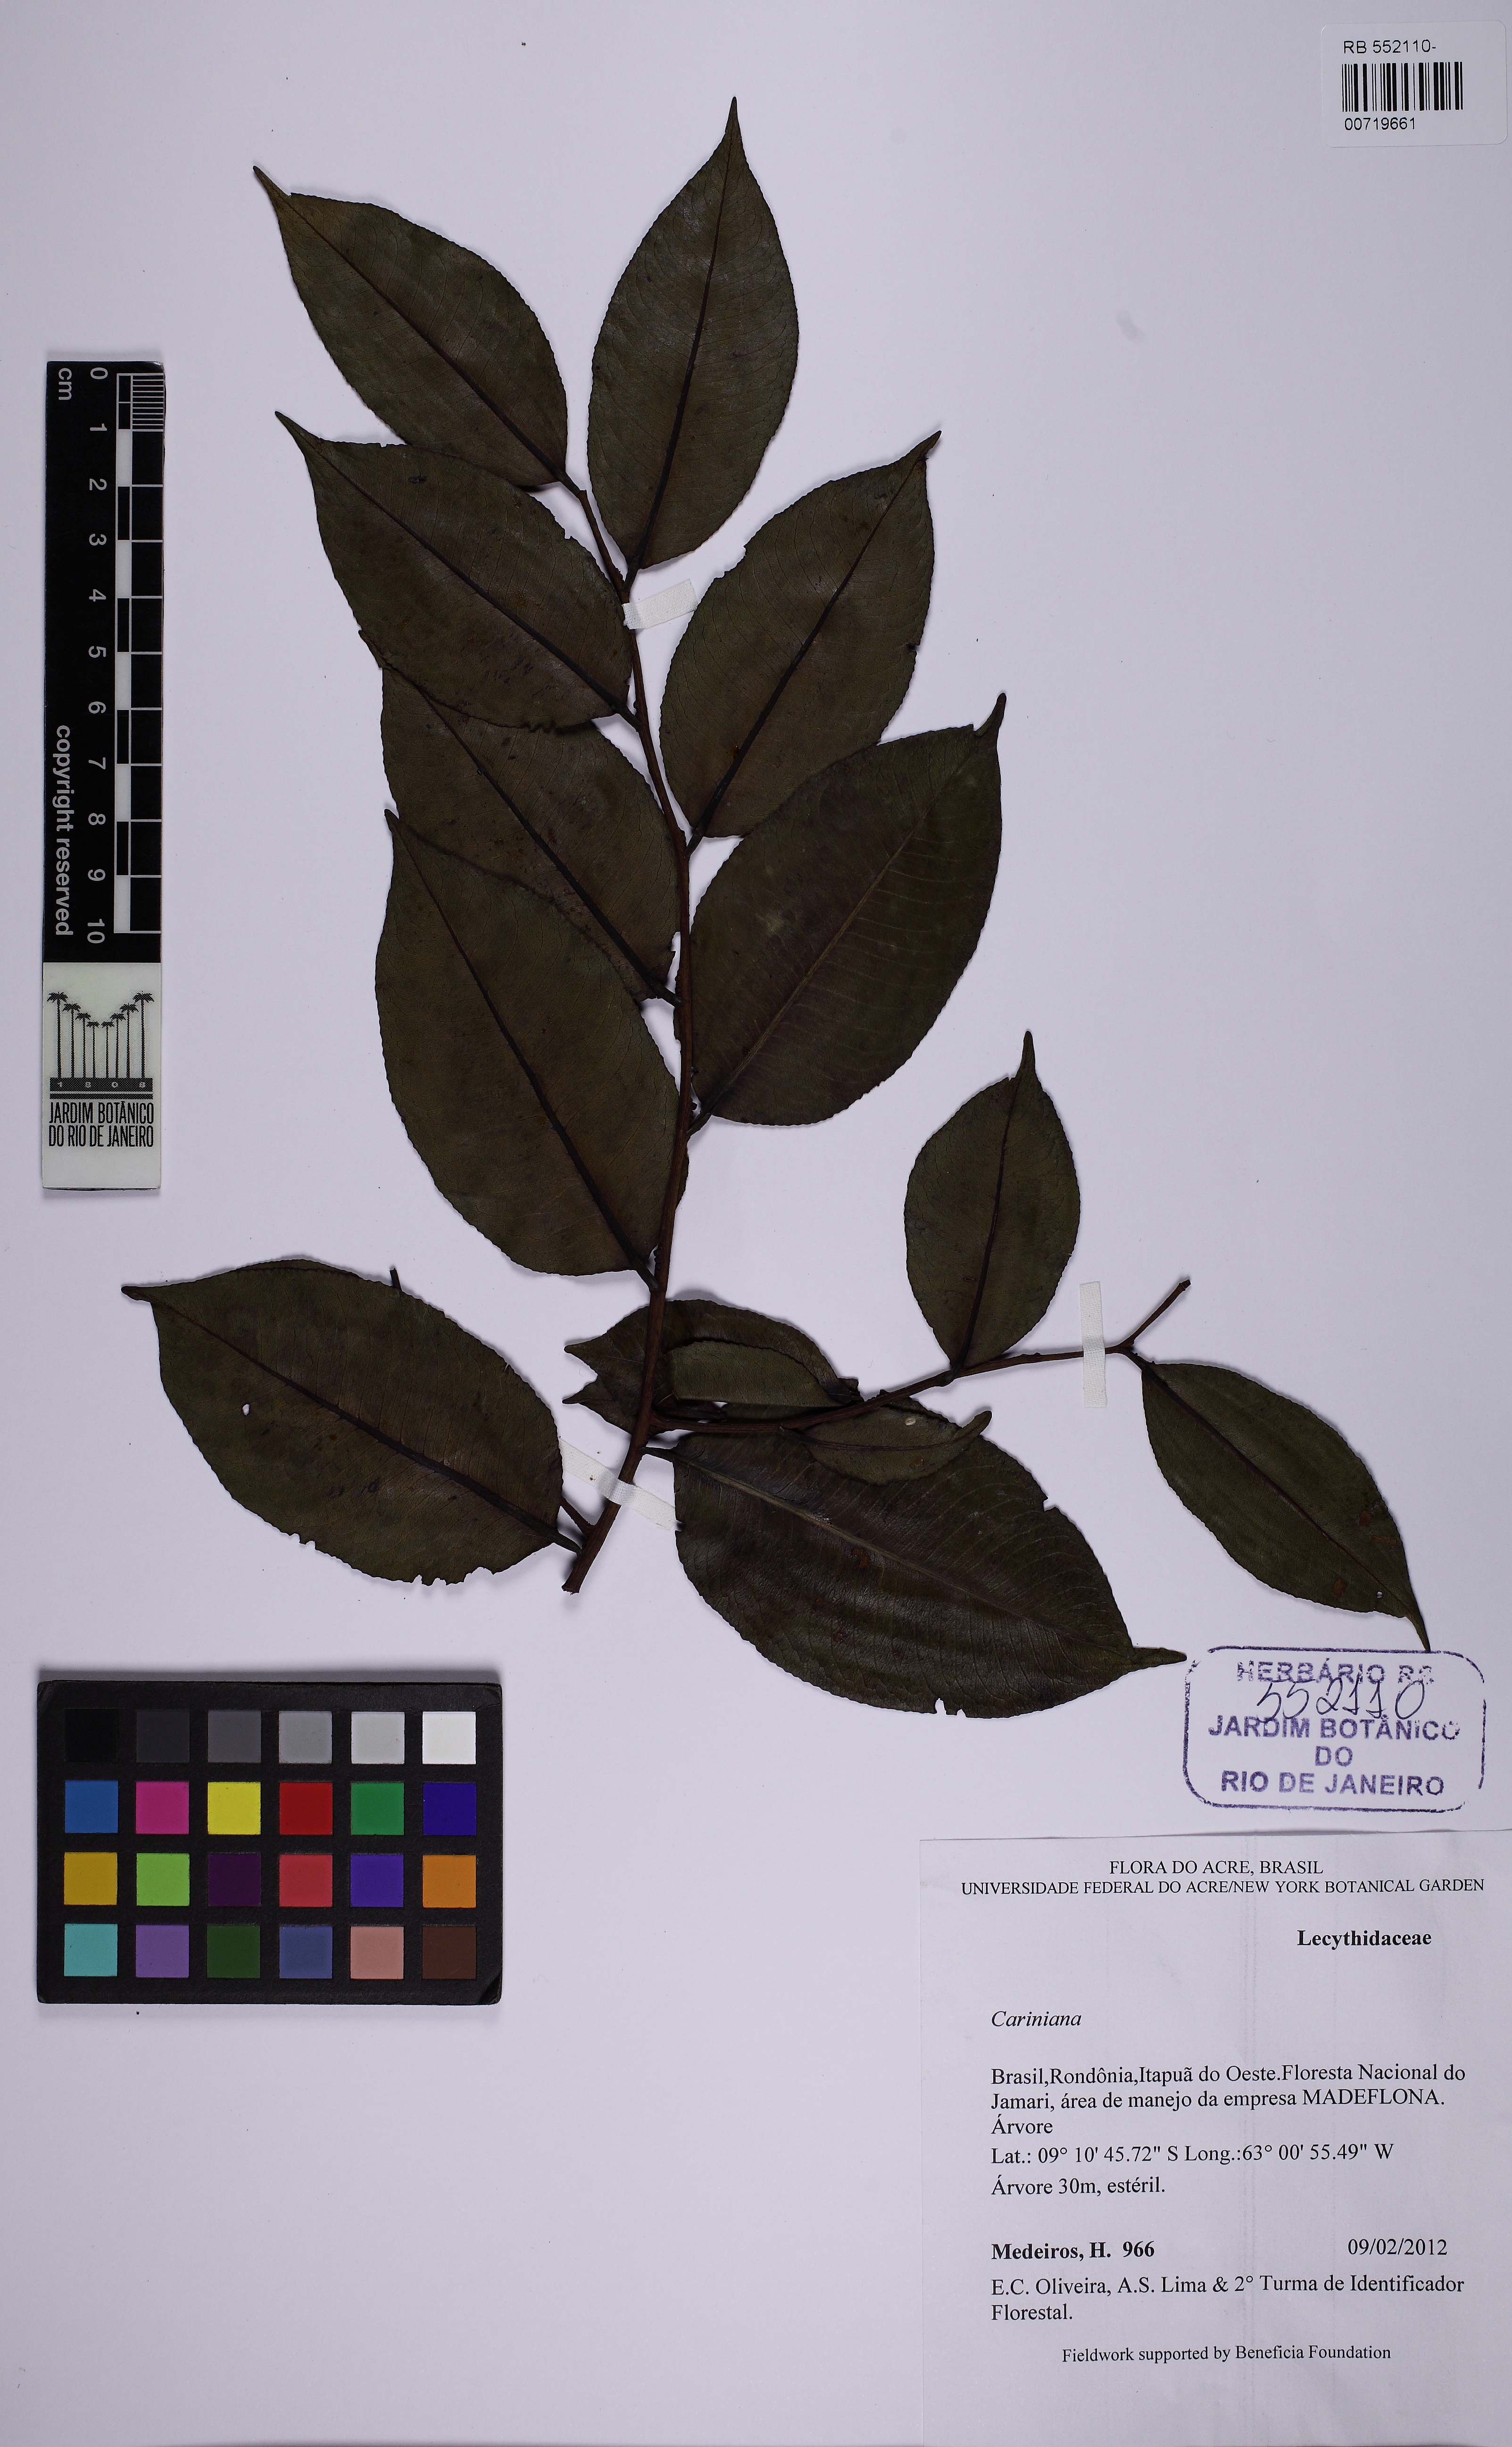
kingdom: Plantae
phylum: Tracheophyta
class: Magnoliopsida
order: Ericales
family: Lecythidaceae
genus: Cariniana
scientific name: Cariniana domestica
